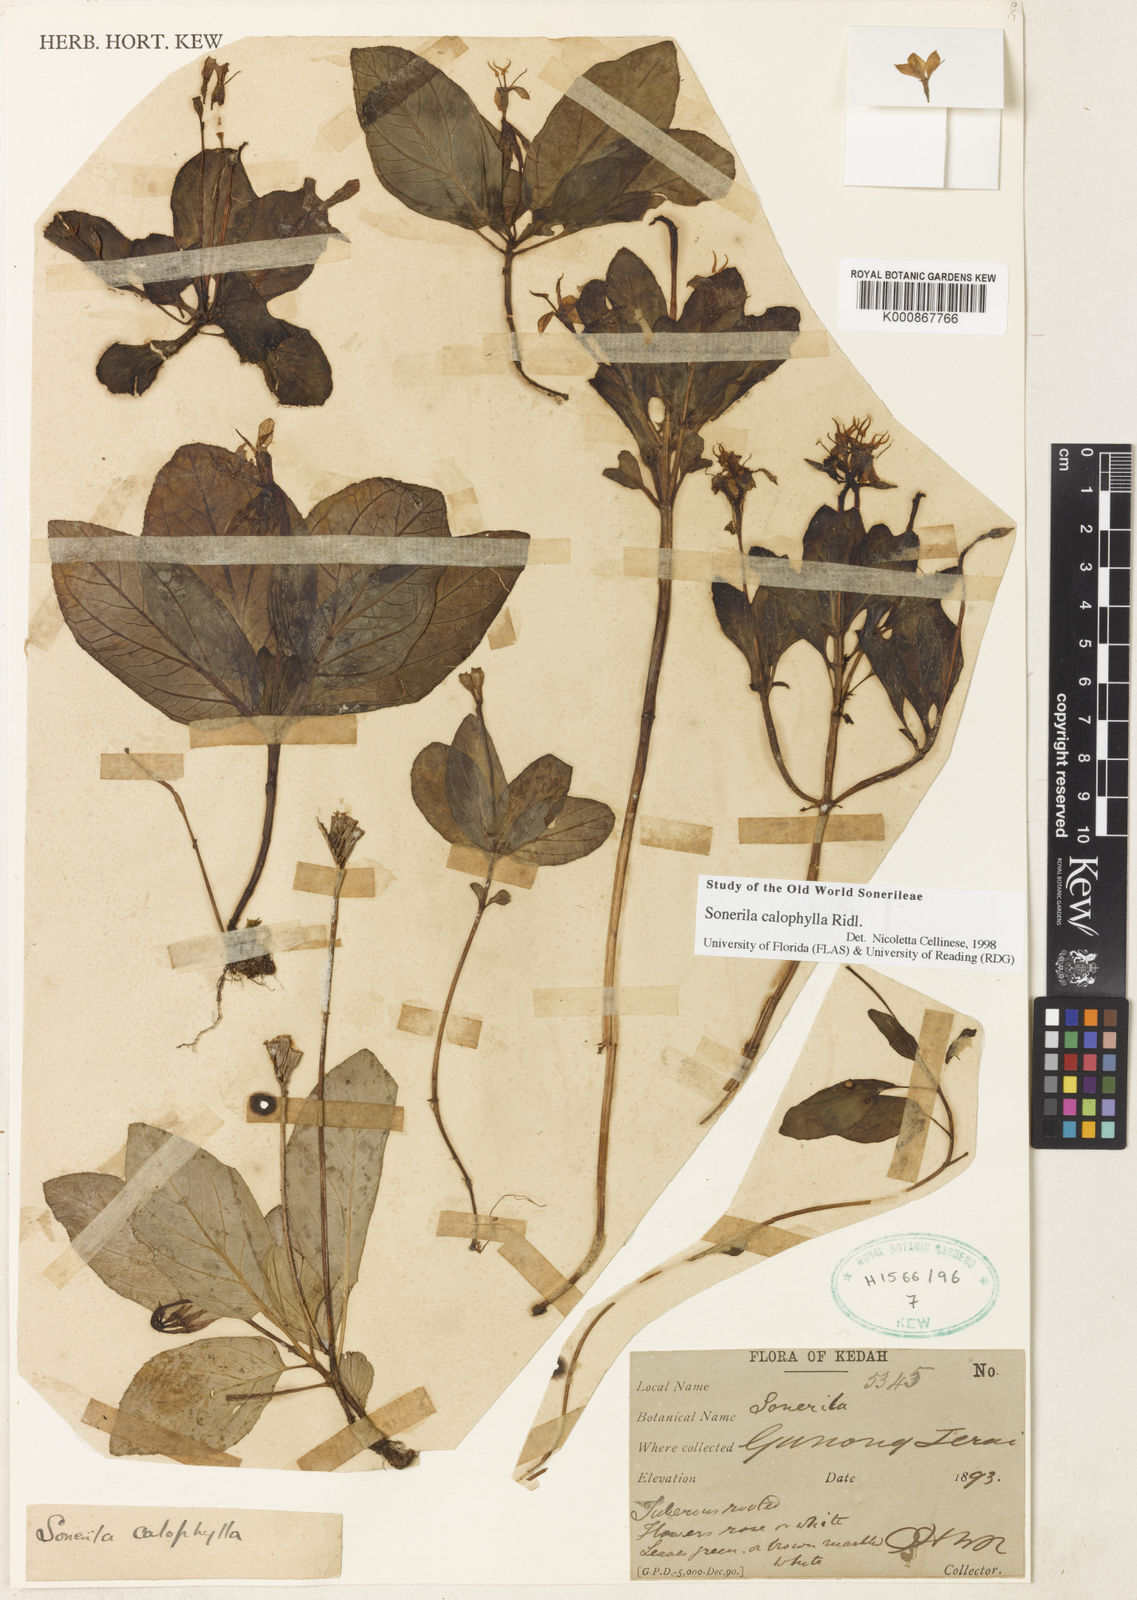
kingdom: Plantae
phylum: Tracheophyta
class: Magnoliopsida
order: Myrtales
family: Melastomataceae
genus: Sonerila
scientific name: Sonerila calophylla
